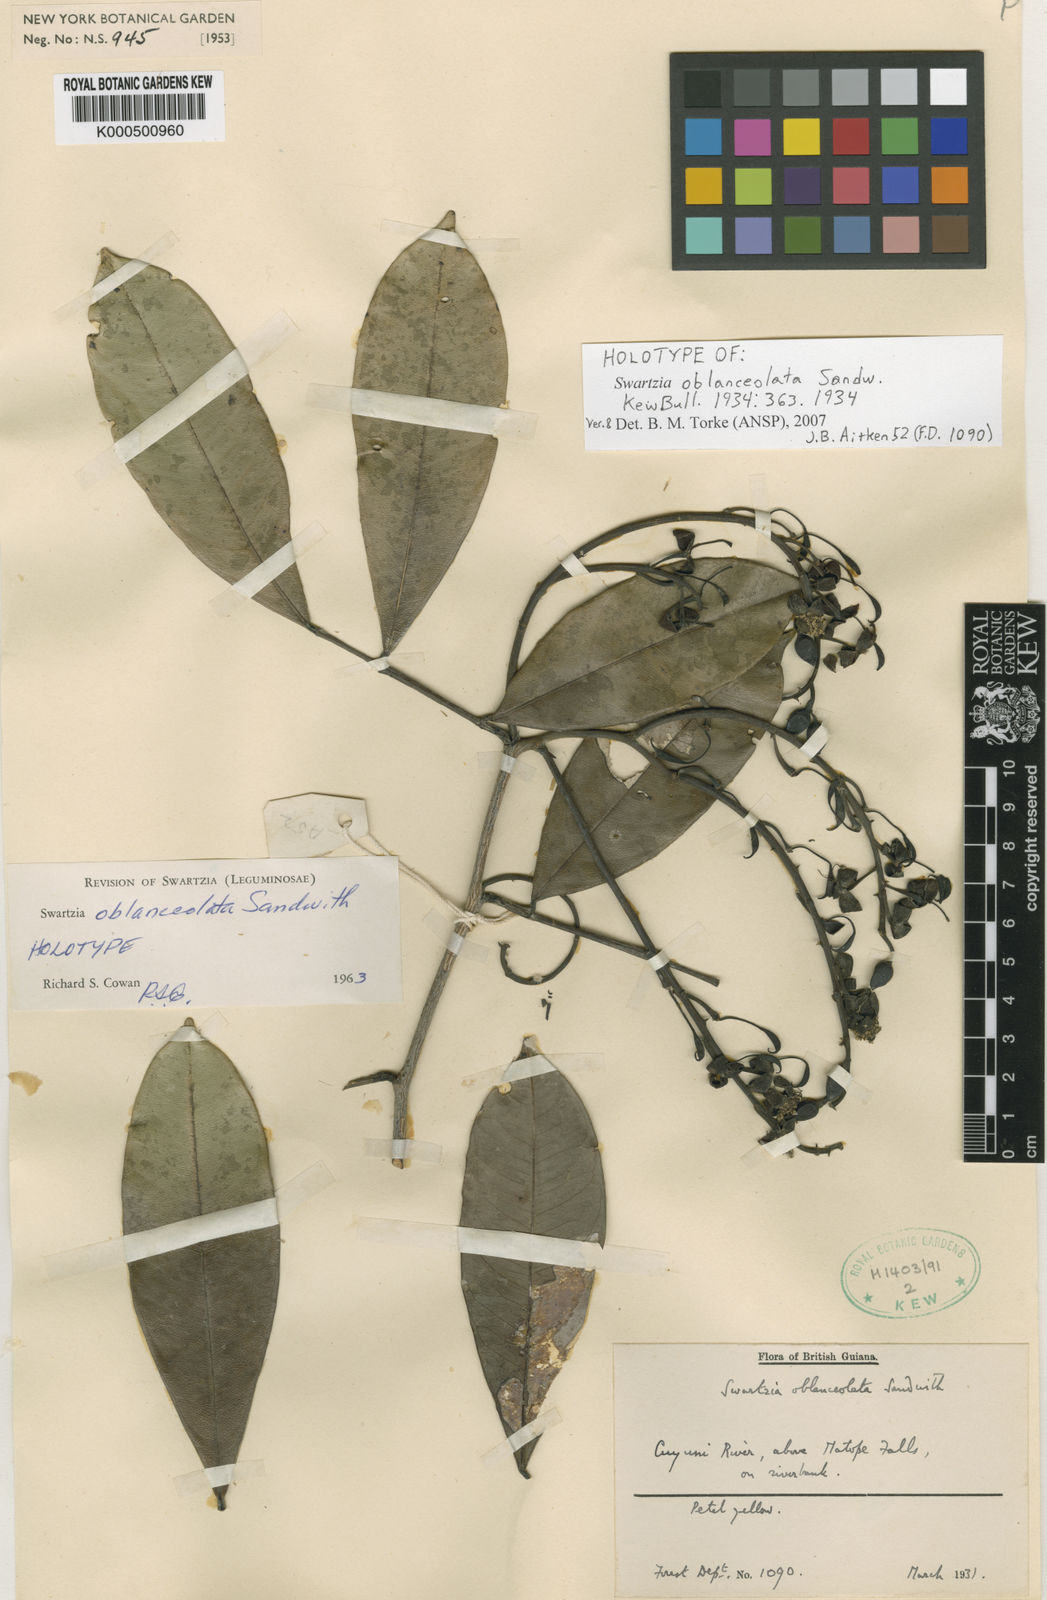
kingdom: Plantae
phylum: Tracheophyta
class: Magnoliopsida
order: Fabales
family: Fabaceae
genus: Swartzia
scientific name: Swartzia oblanceolata
